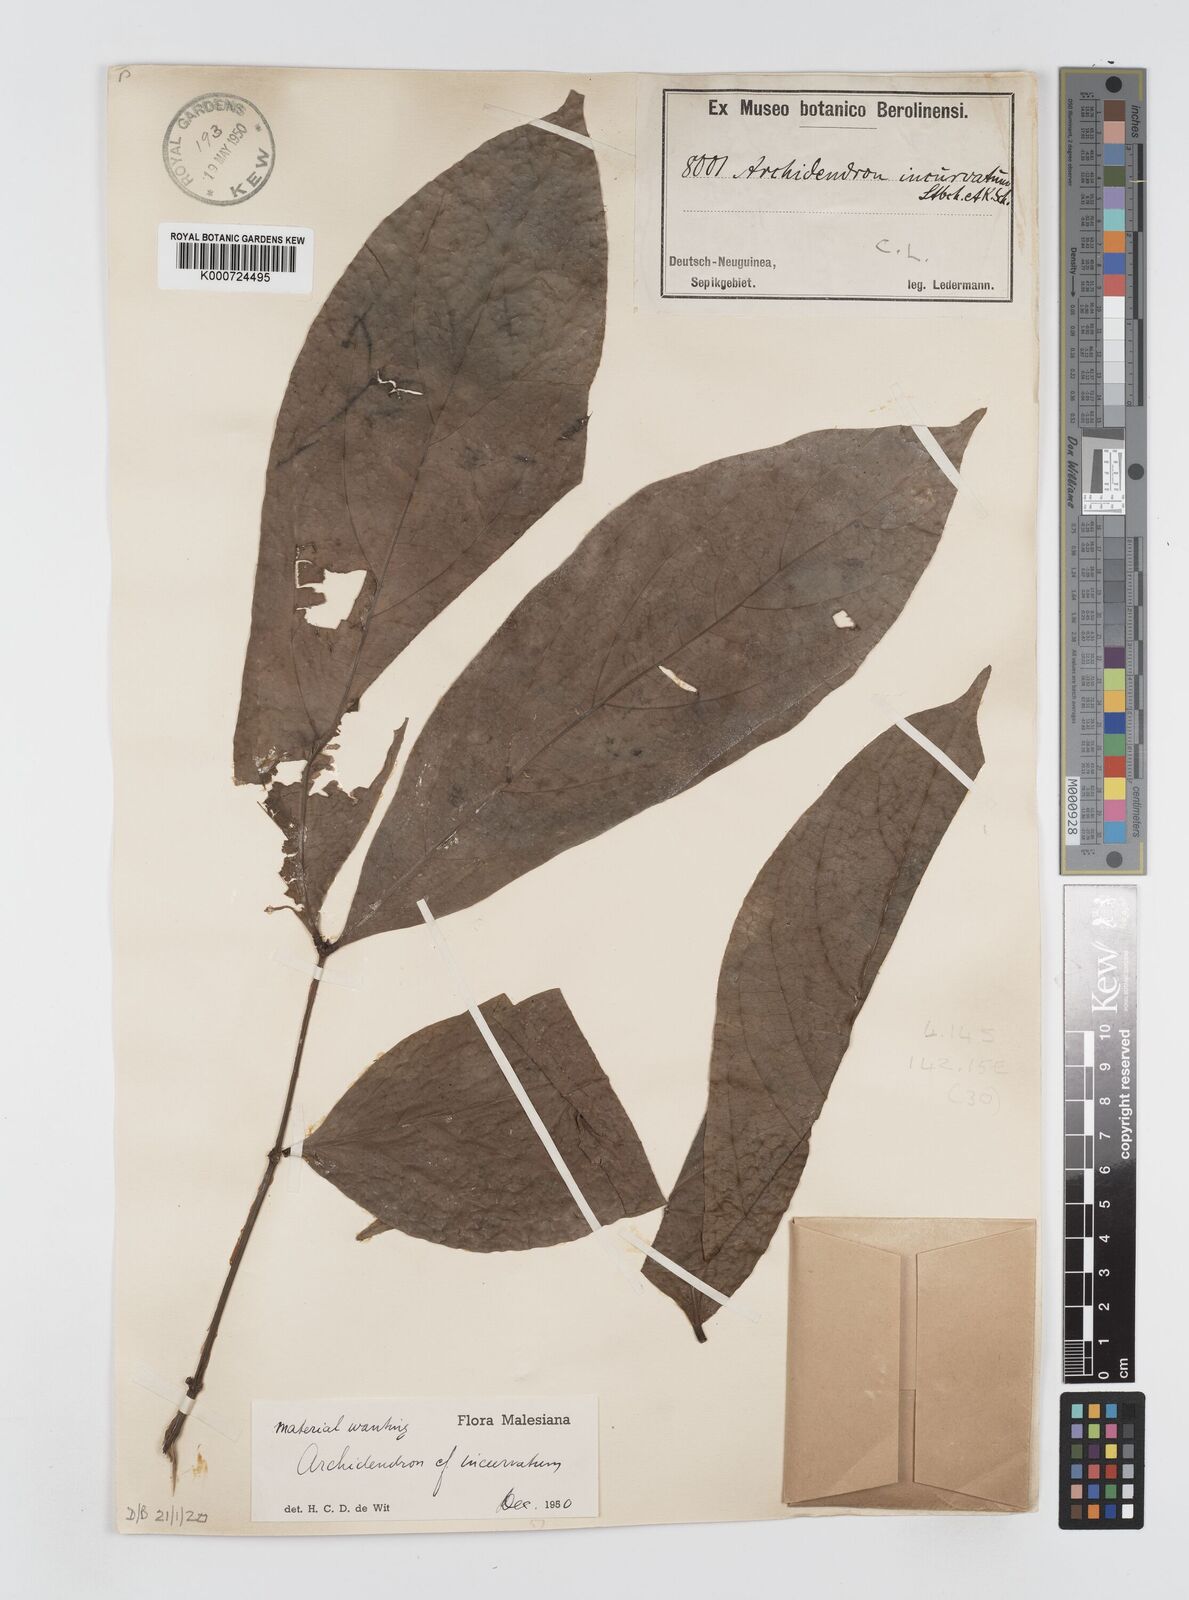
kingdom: Plantae
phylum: Tracheophyta
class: Magnoliopsida
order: Fabales
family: Fabaceae
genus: Archidendron
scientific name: Archidendron aruense
